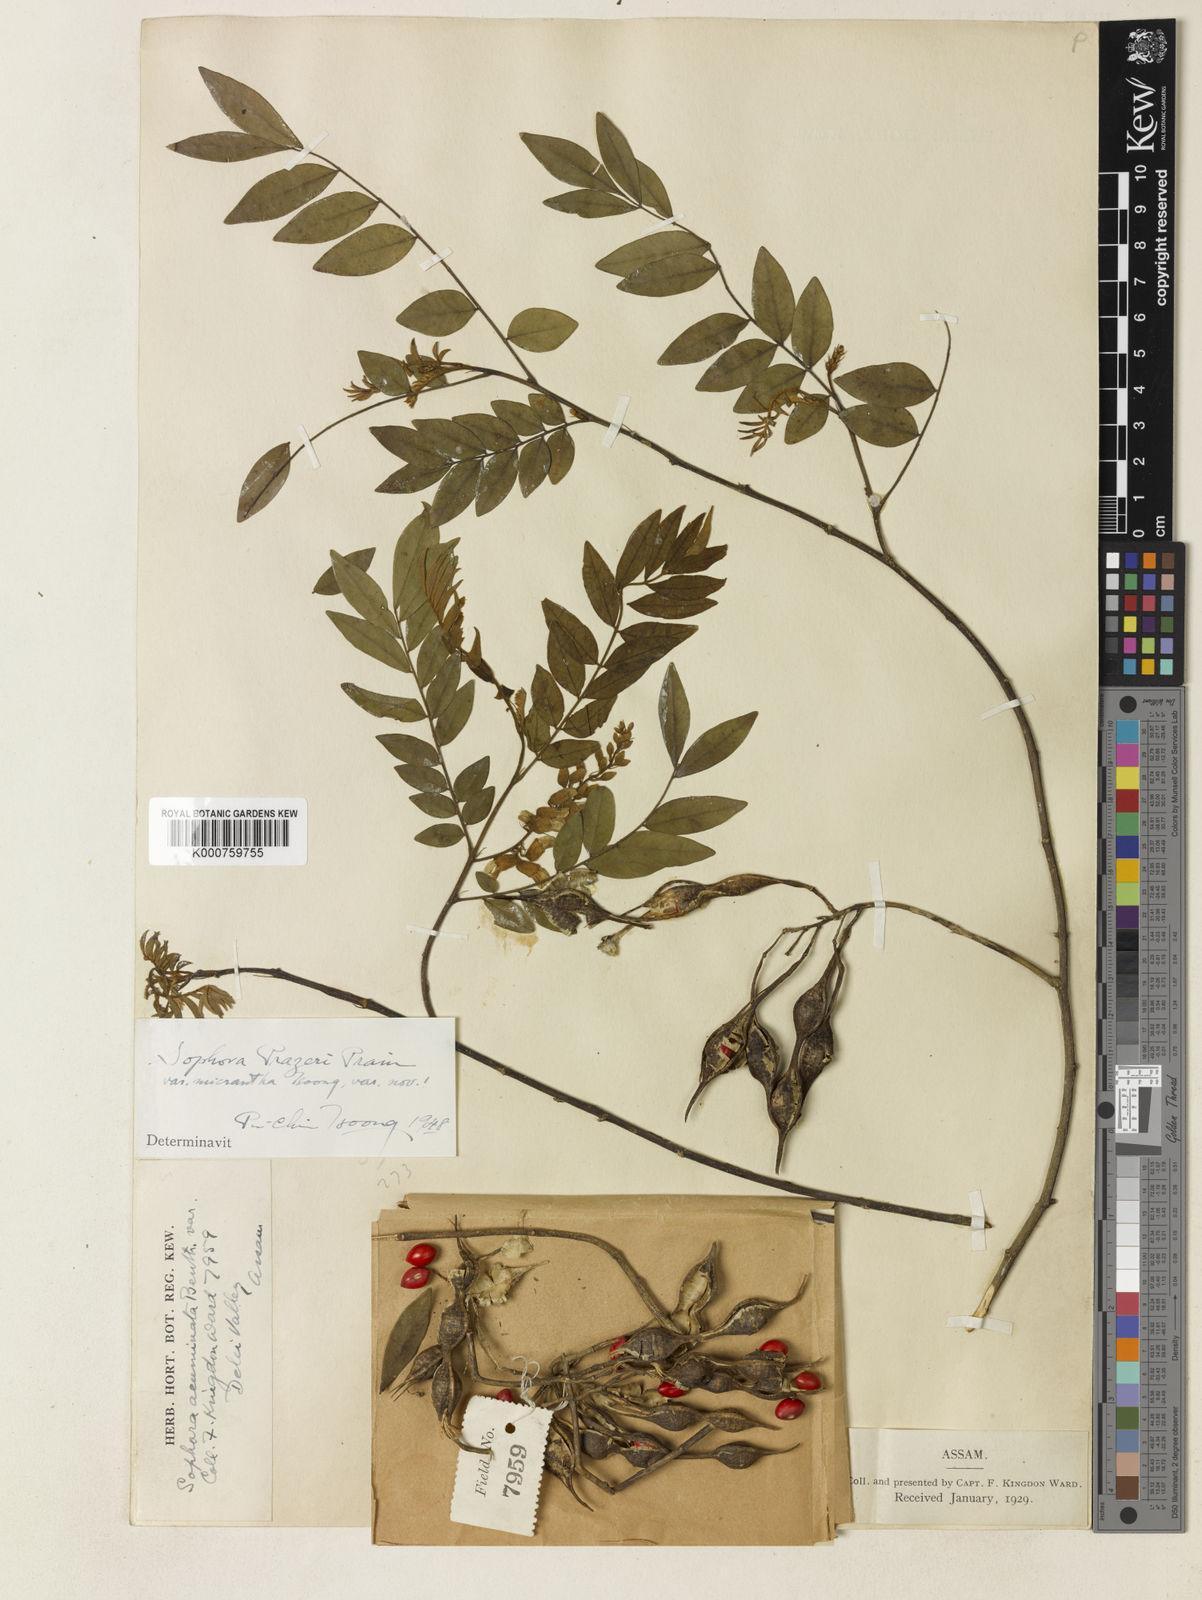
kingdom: Plantae
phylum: Tracheophyta
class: Magnoliopsida
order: Fabales
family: Fabaceae
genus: Sophora
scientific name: Sophora wightii
